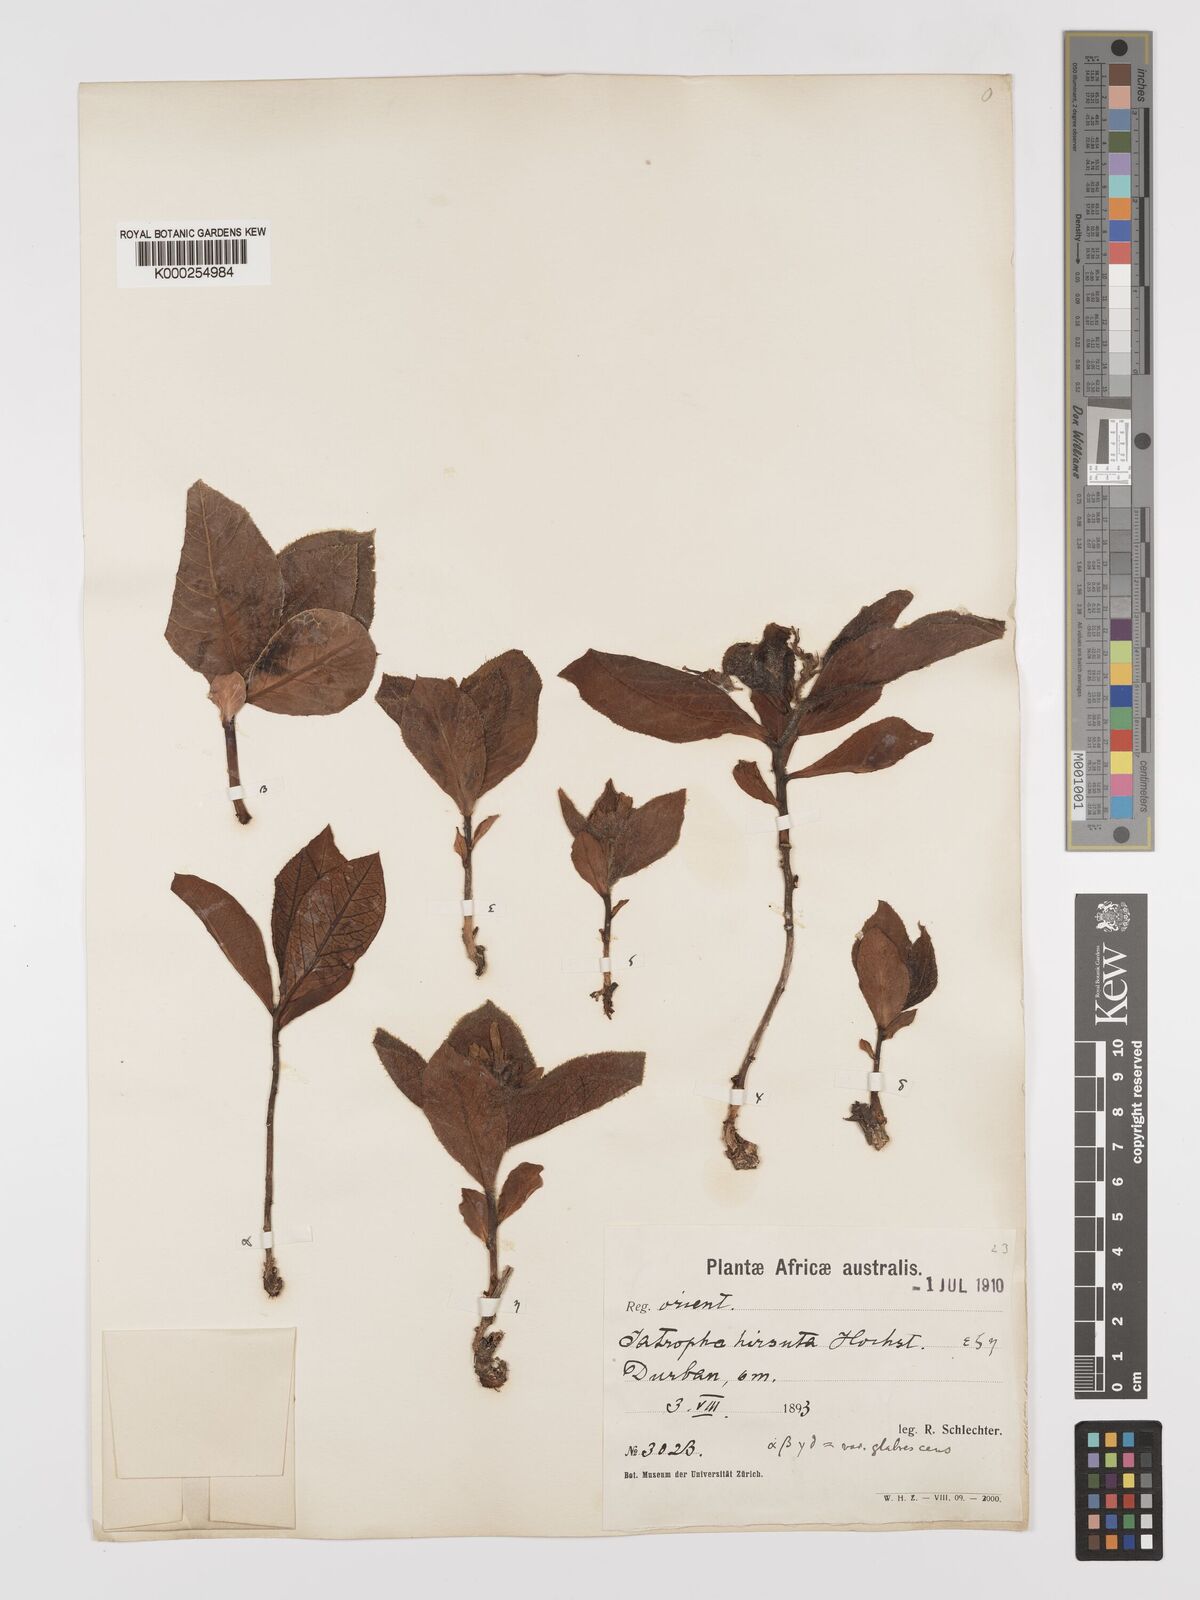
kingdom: Plantae
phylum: Tracheophyta
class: Magnoliopsida
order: Malpighiales
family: Euphorbiaceae
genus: Jatropha
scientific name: Jatropha hirsuta
